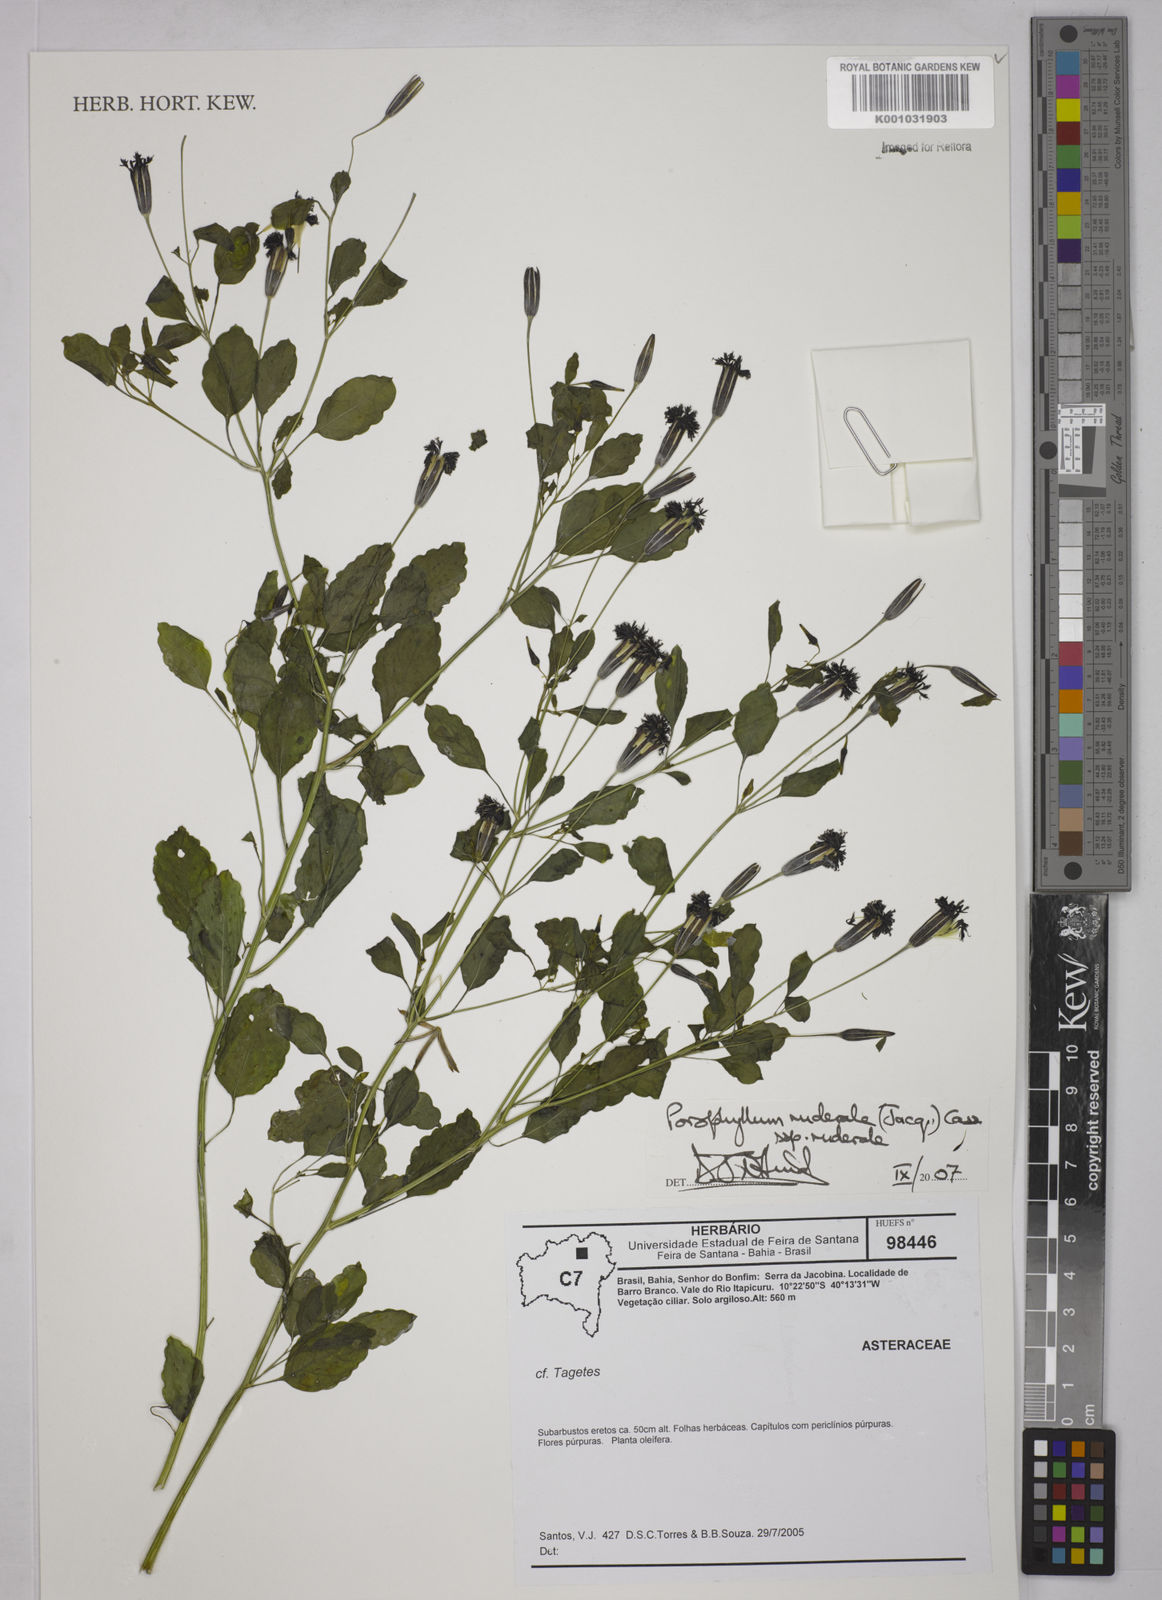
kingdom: Plantae
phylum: Tracheophyta
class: Magnoliopsida
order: Asterales
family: Asteraceae
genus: Porophyllum
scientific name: Porophyllum ruderale
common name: Yerba porosa
